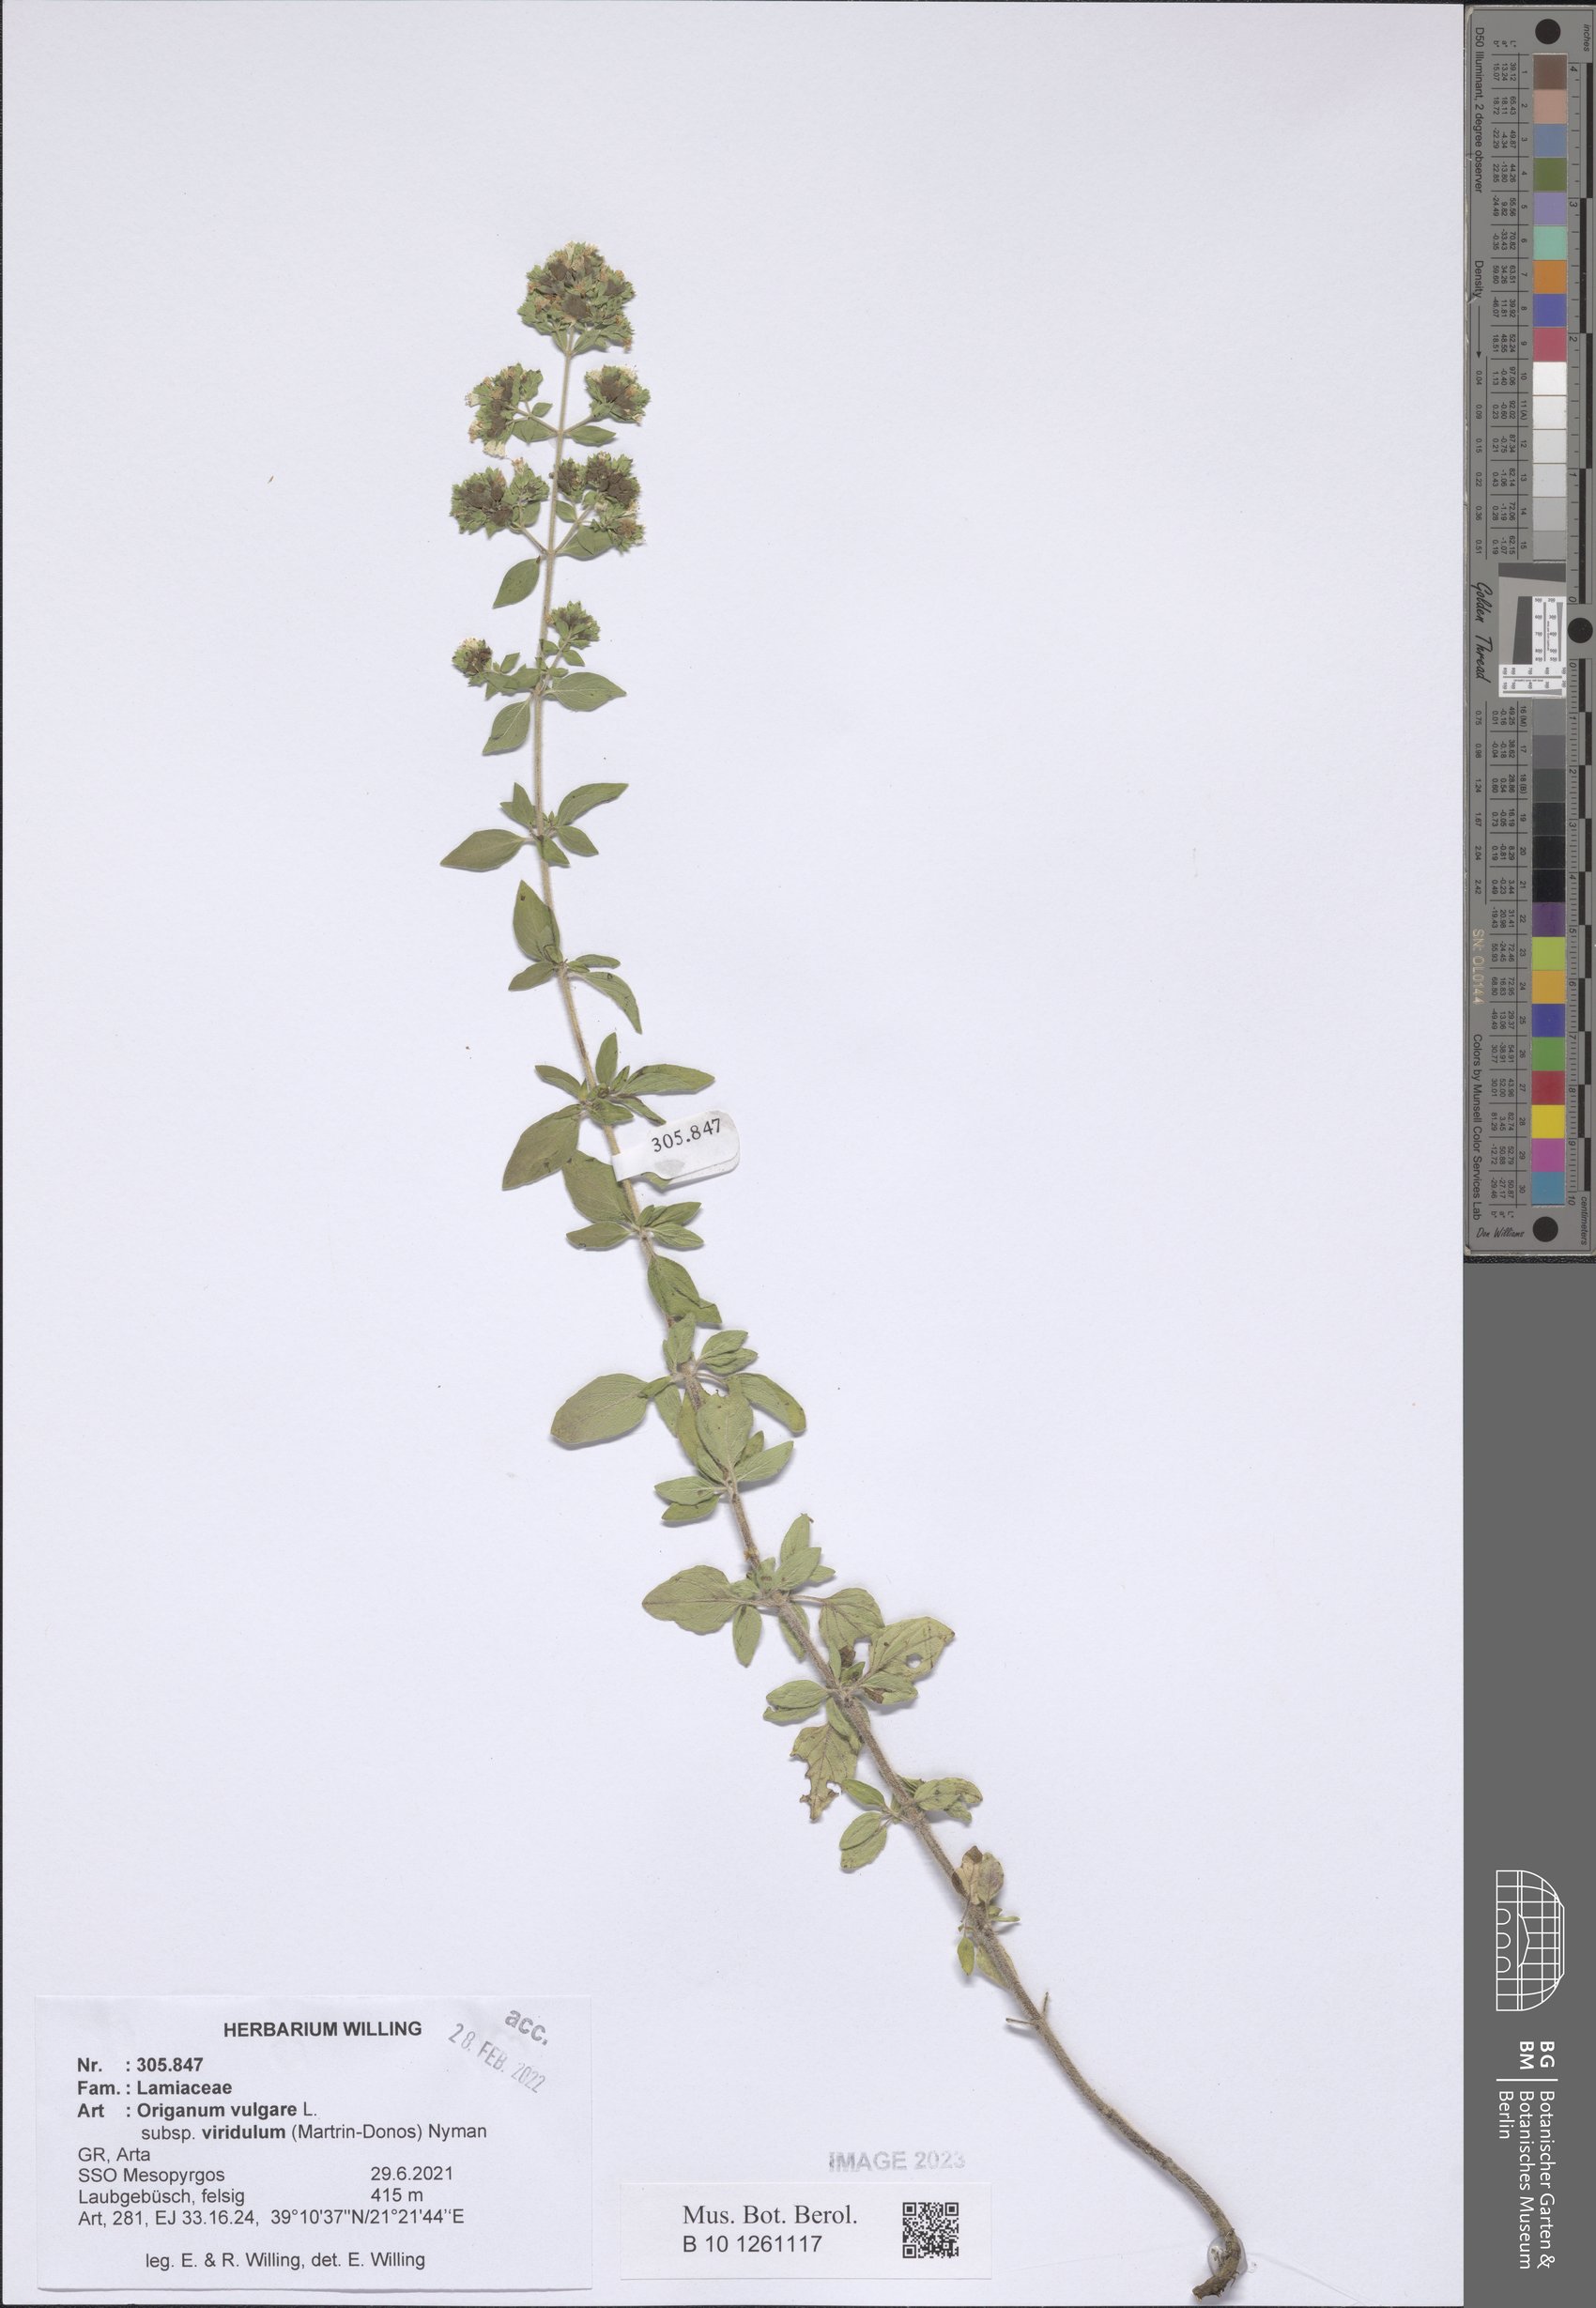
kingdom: Plantae
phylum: Tracheophyta
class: Magnoliopsida
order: Lamiales
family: Lamiaceae
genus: Origanum
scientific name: Origanum vulgare
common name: Wild marjoram
